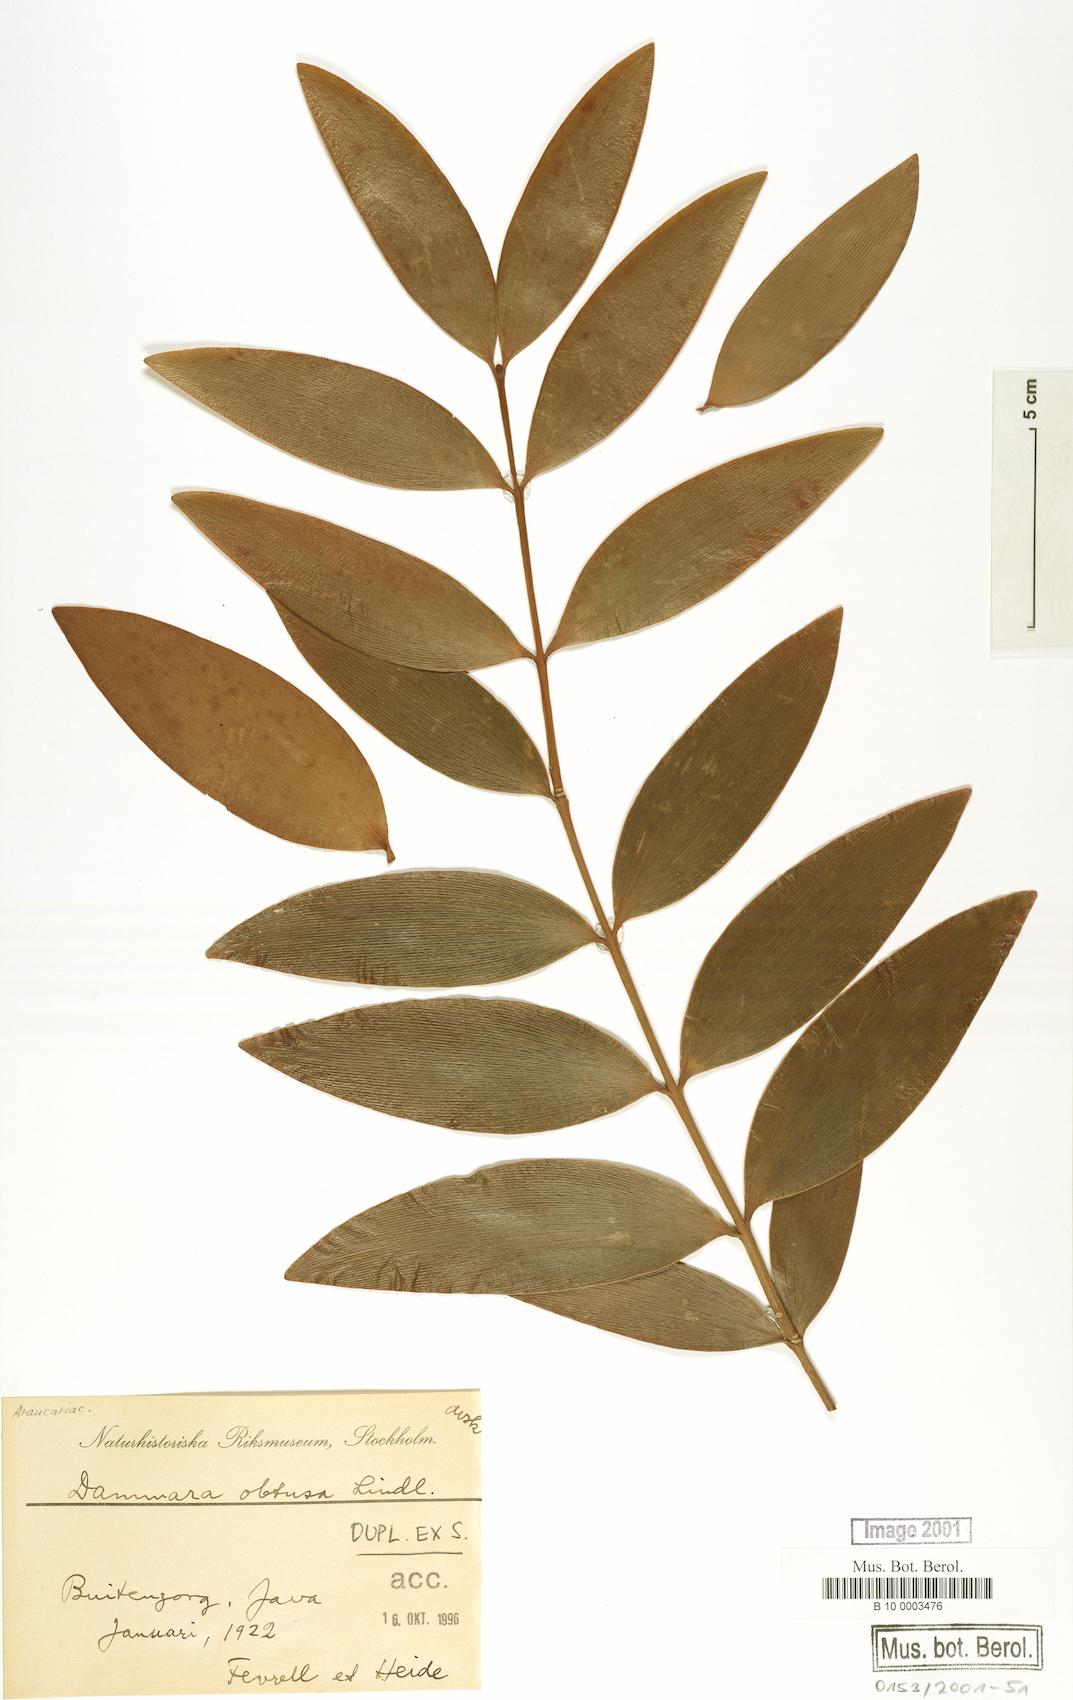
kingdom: Plantae
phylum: Tracheophyta
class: Pinopsida
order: Pinales
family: Araucariaceae
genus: Agathis
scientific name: Agathis macrophylla
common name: Fijian kauri pine
